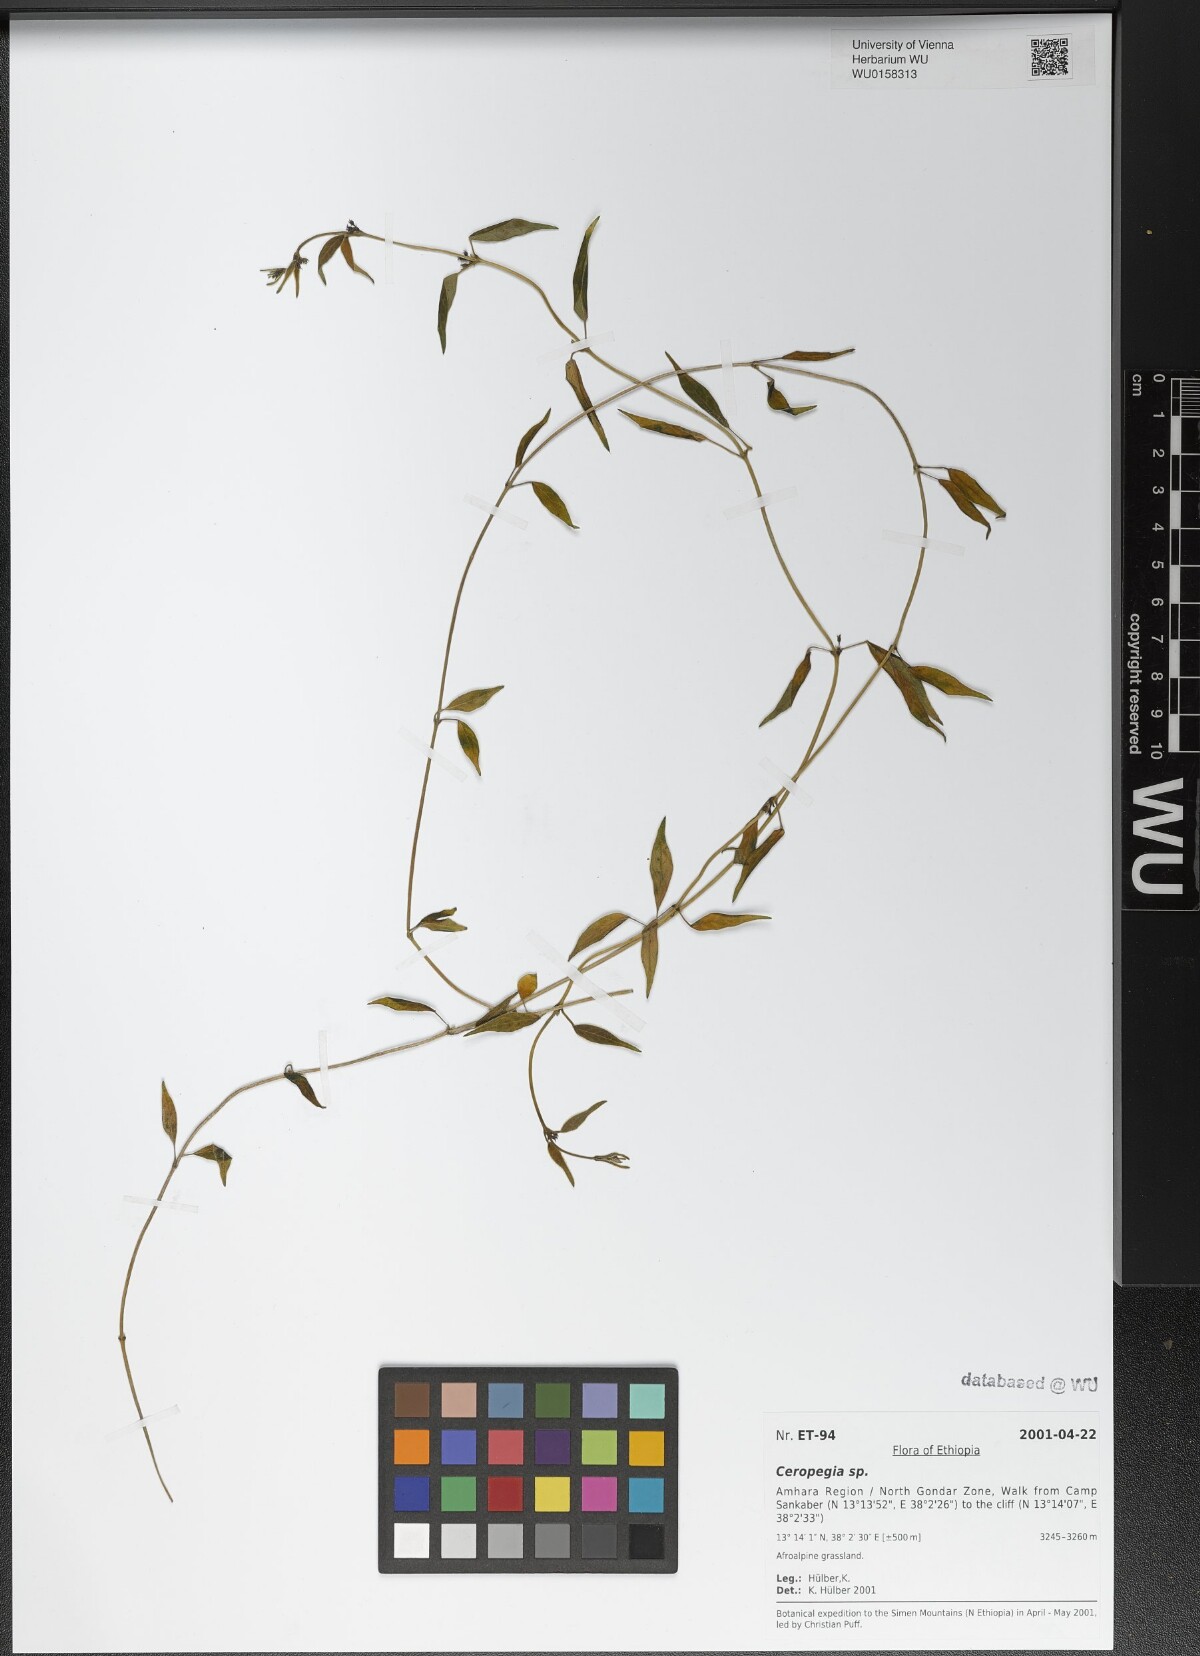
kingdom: Plantae
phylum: Tracheophyta
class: Magnoliopsida
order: Gentianales
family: Apocynaceae
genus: Ceropegia
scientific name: Ceropegia
